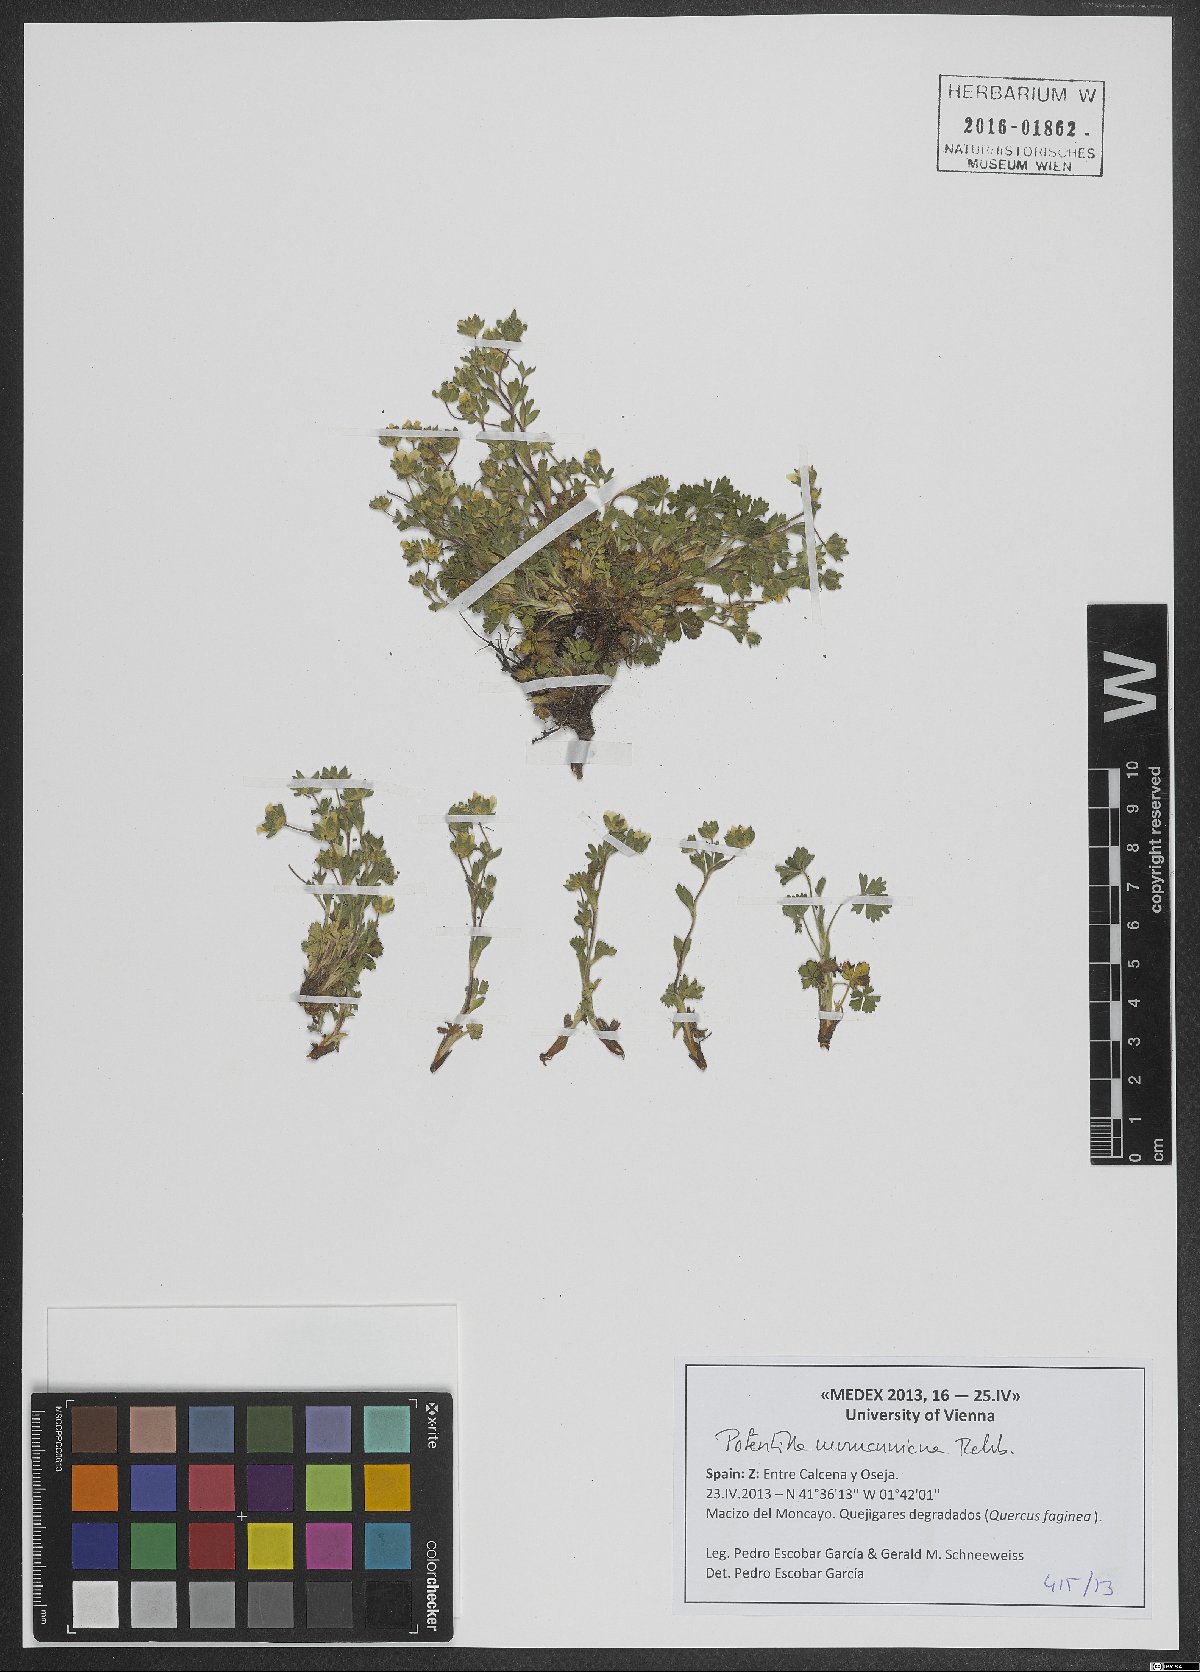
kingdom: Plantae
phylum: Tracheophyta
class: Magnoliopsida
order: Rosales
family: Rosaceae
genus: Potentilla
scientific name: Potentilla verna
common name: Spring cinquefoil
